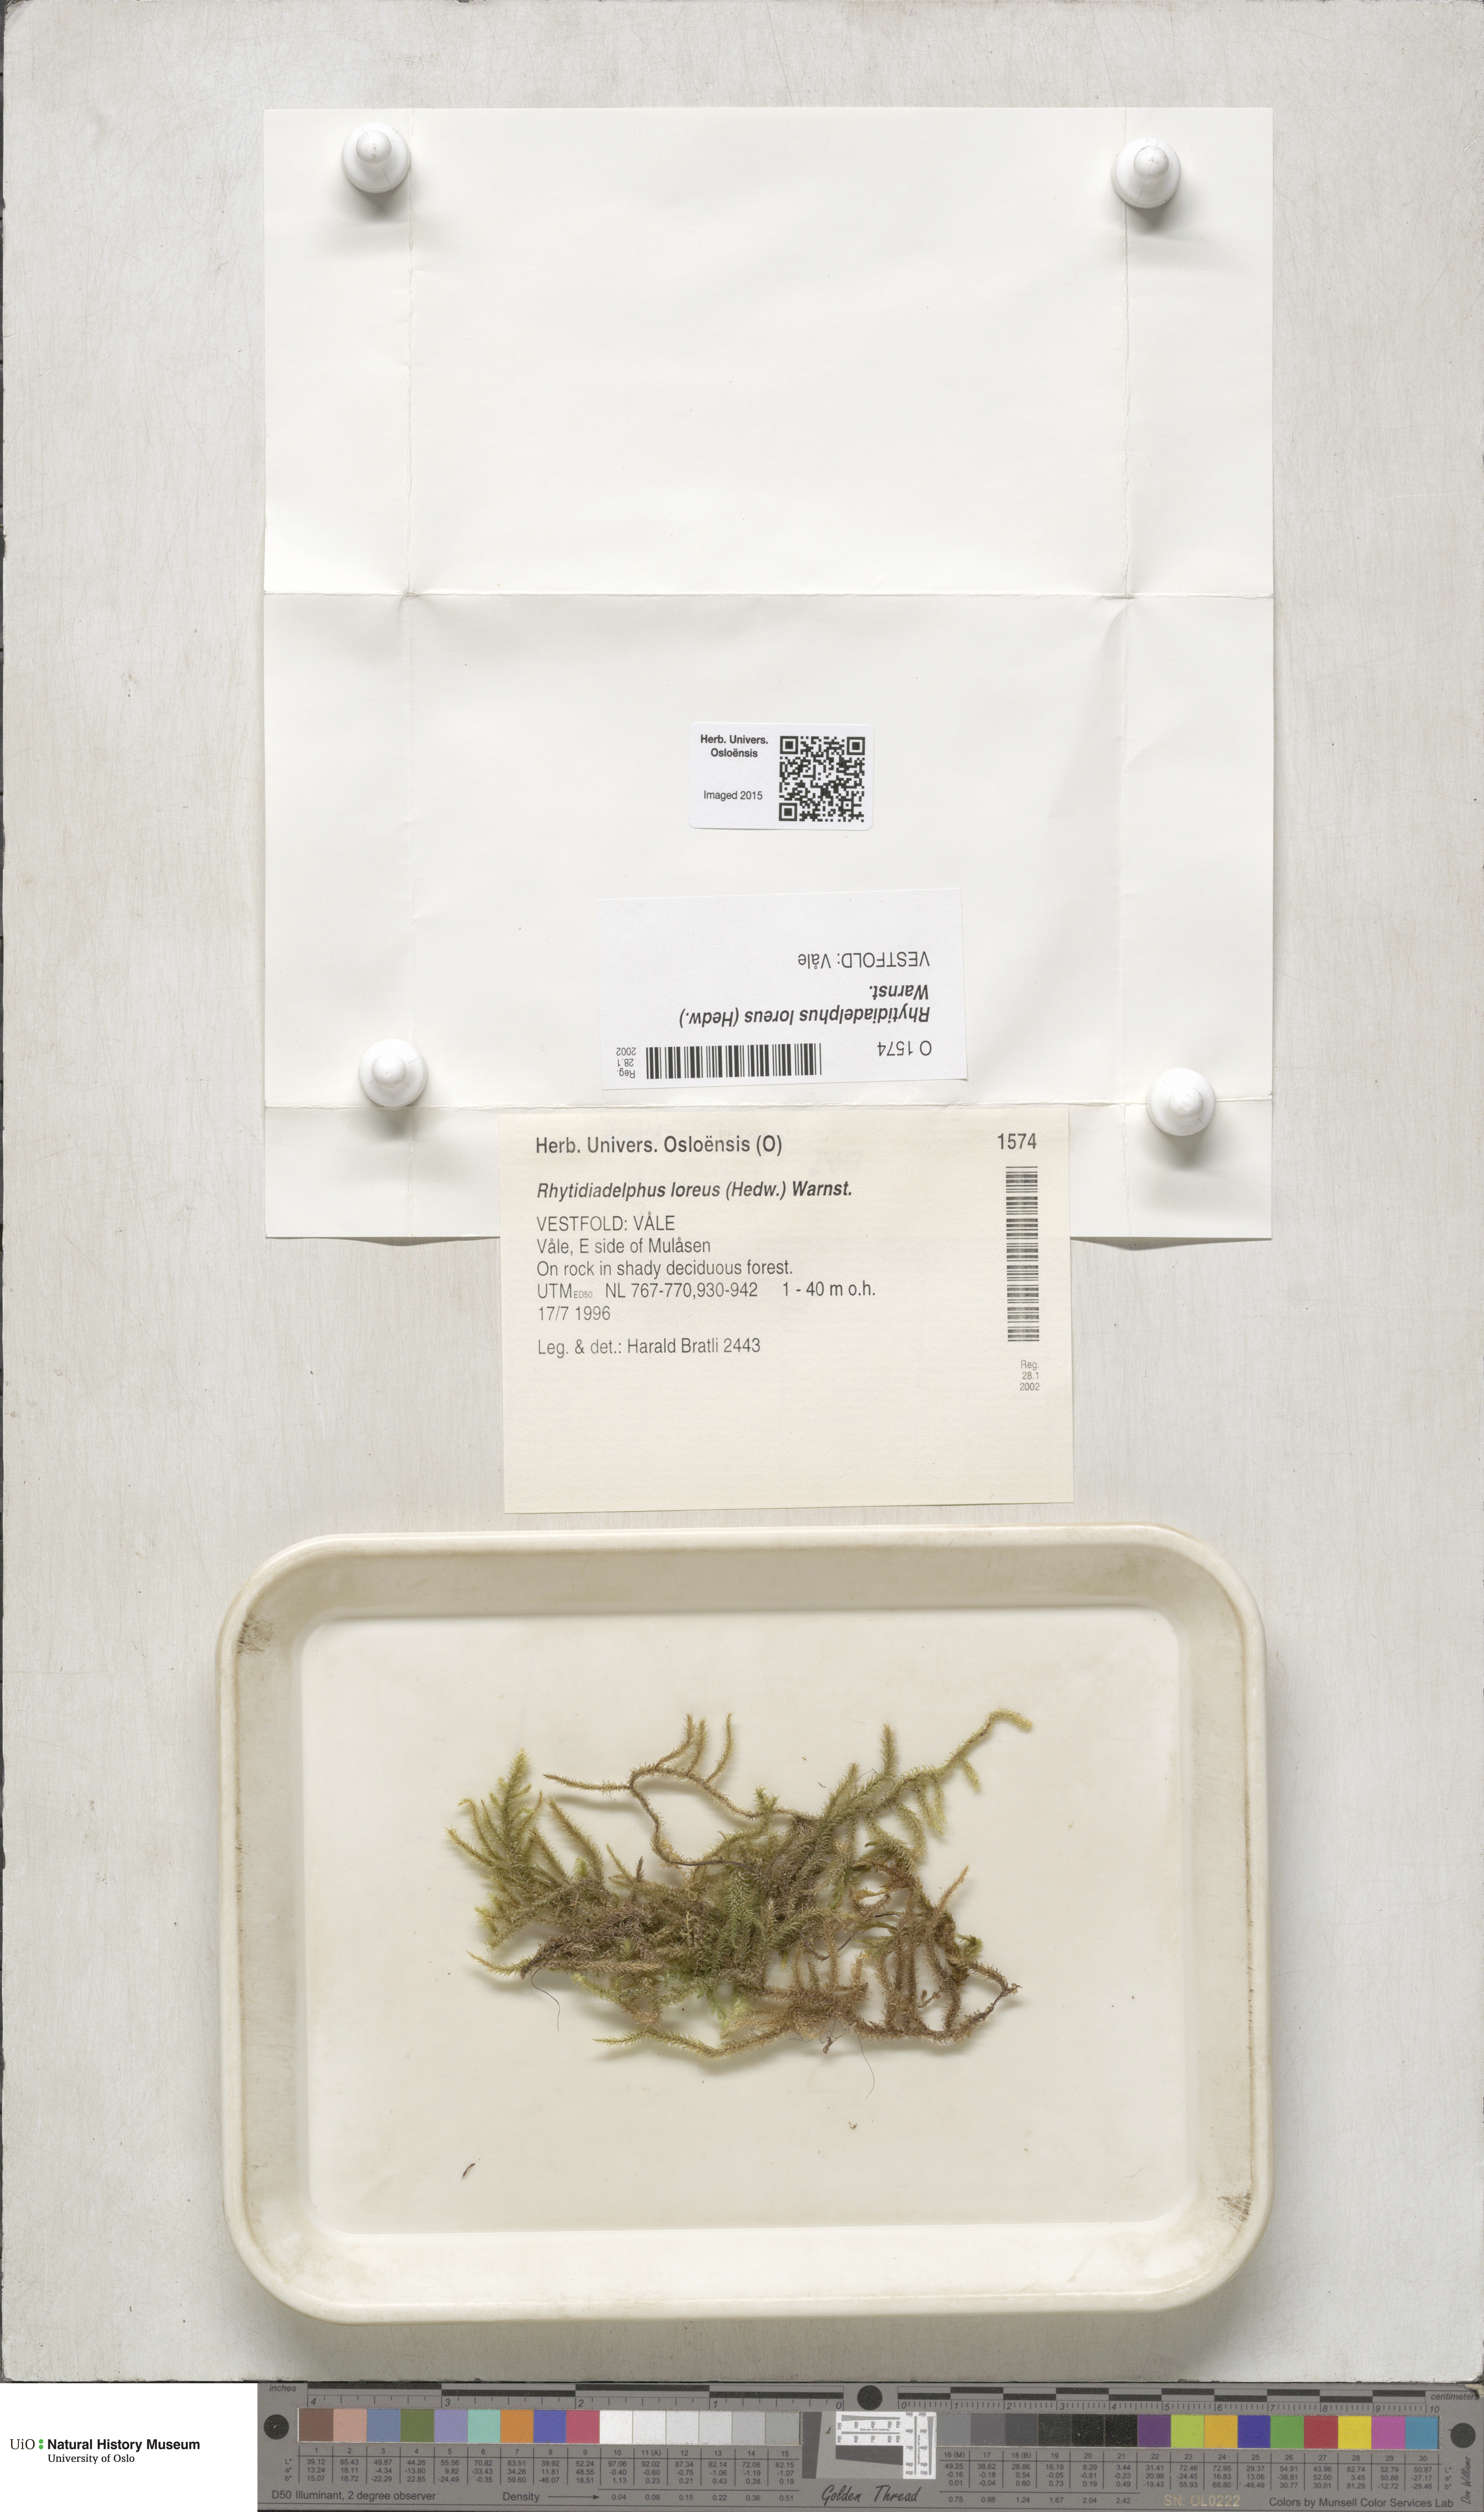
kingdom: Plantae
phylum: Bryophyta
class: Bryopsida
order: Hypnales
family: Hylocomiaceae
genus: Rhytidiadelphus
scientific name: Rhytidiadelphus loreus
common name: Lanky moss
